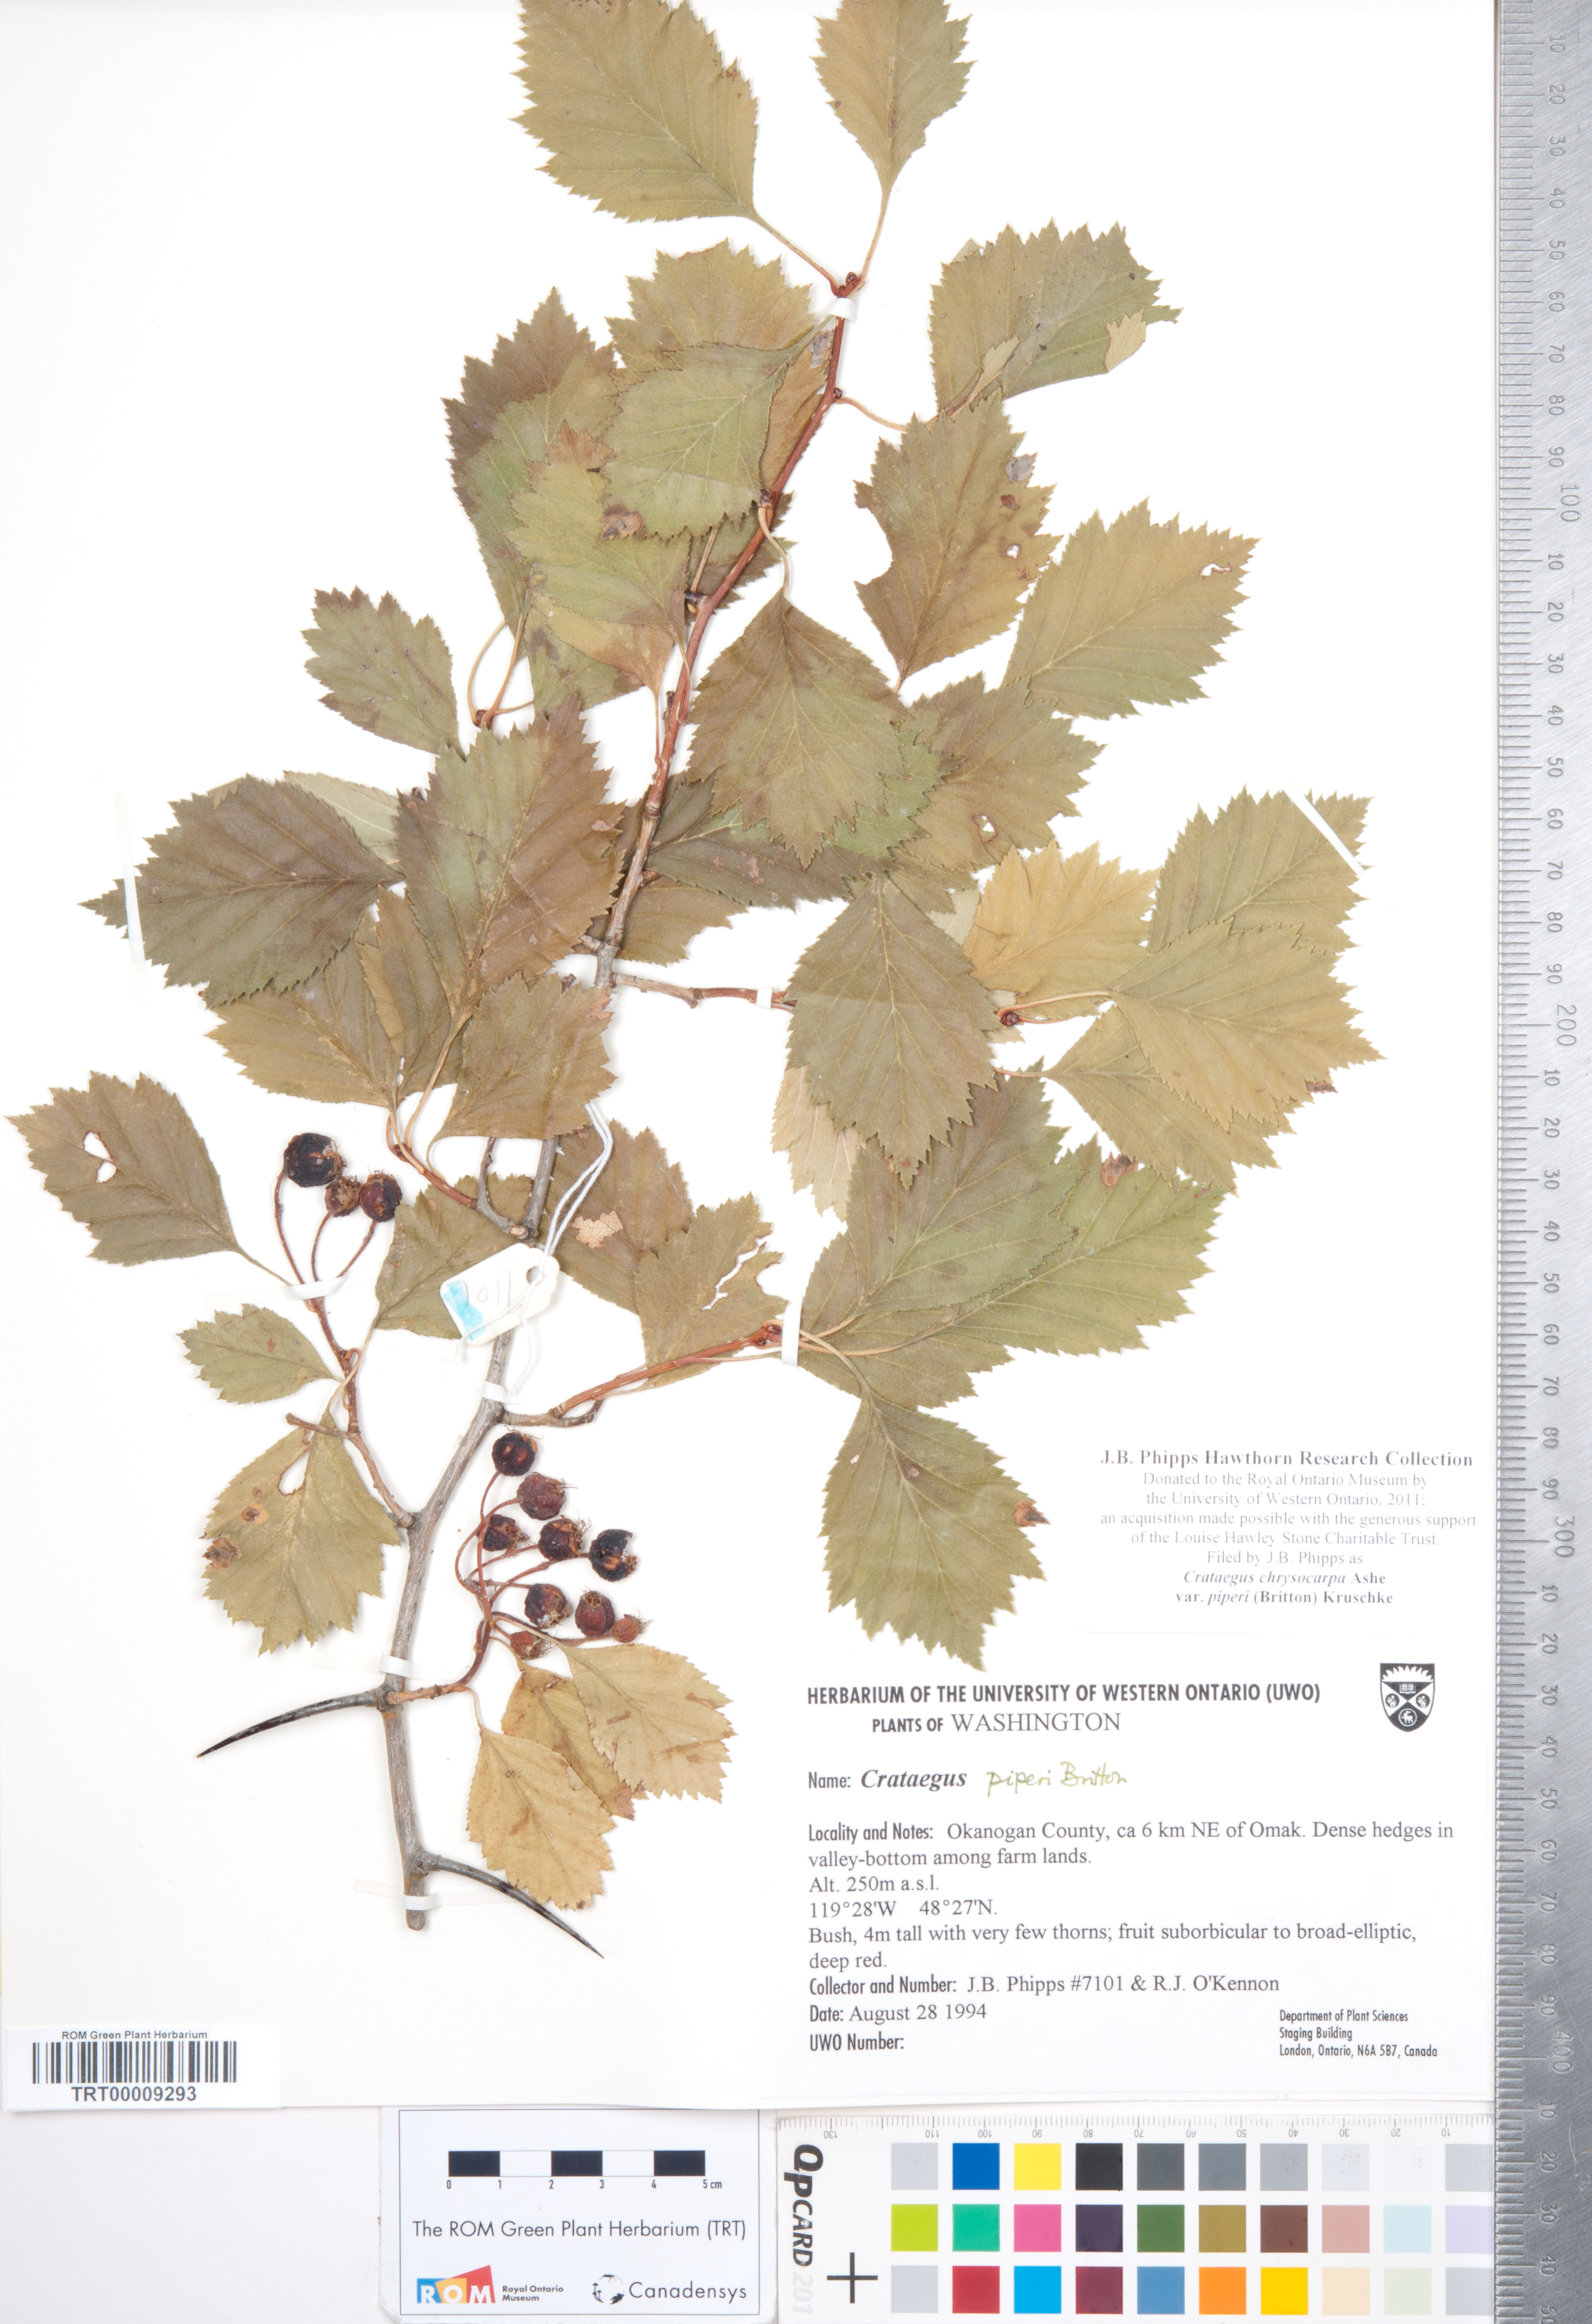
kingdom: Plantae
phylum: Tracheophyta
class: Magnoliopsida
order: Rosales
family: Rosaceae
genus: Crataegus
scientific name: Crataegus piperi
